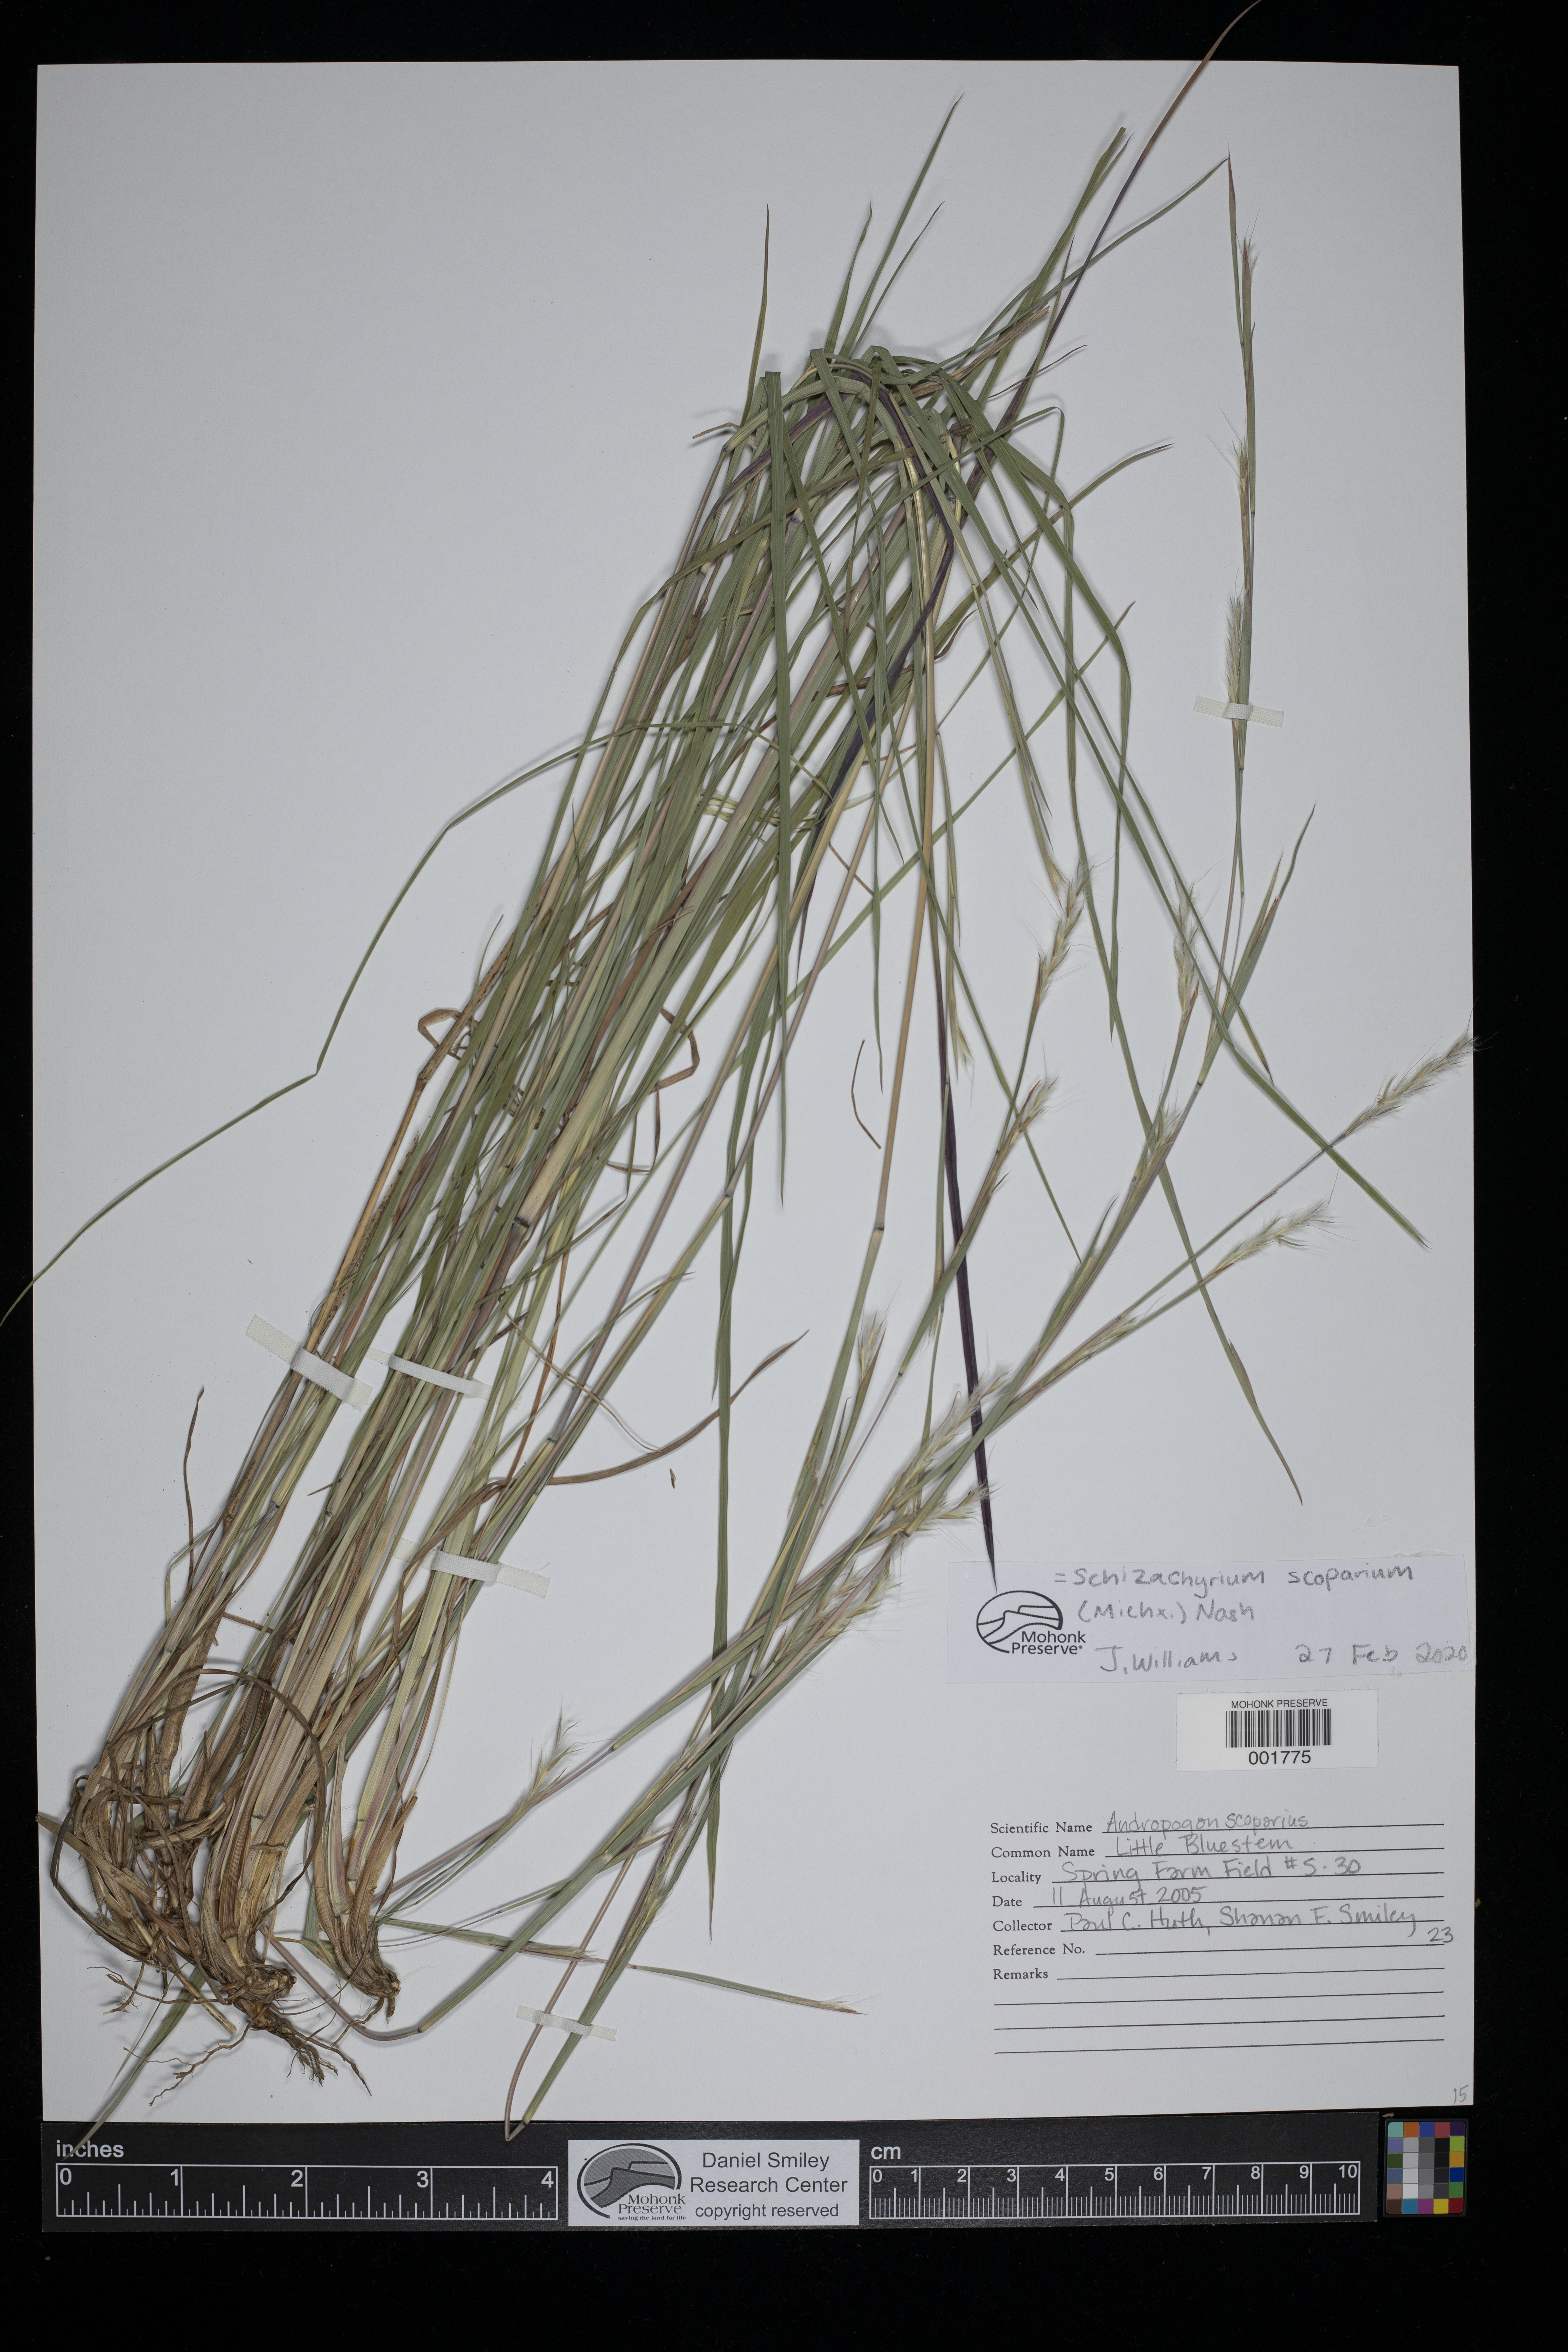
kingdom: Plantae
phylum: Tracheophyta
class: Liliopsida
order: Poales
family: Poaceae
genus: Schizachyrium
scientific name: Schizachyrium scoparium
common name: Little bluestem
